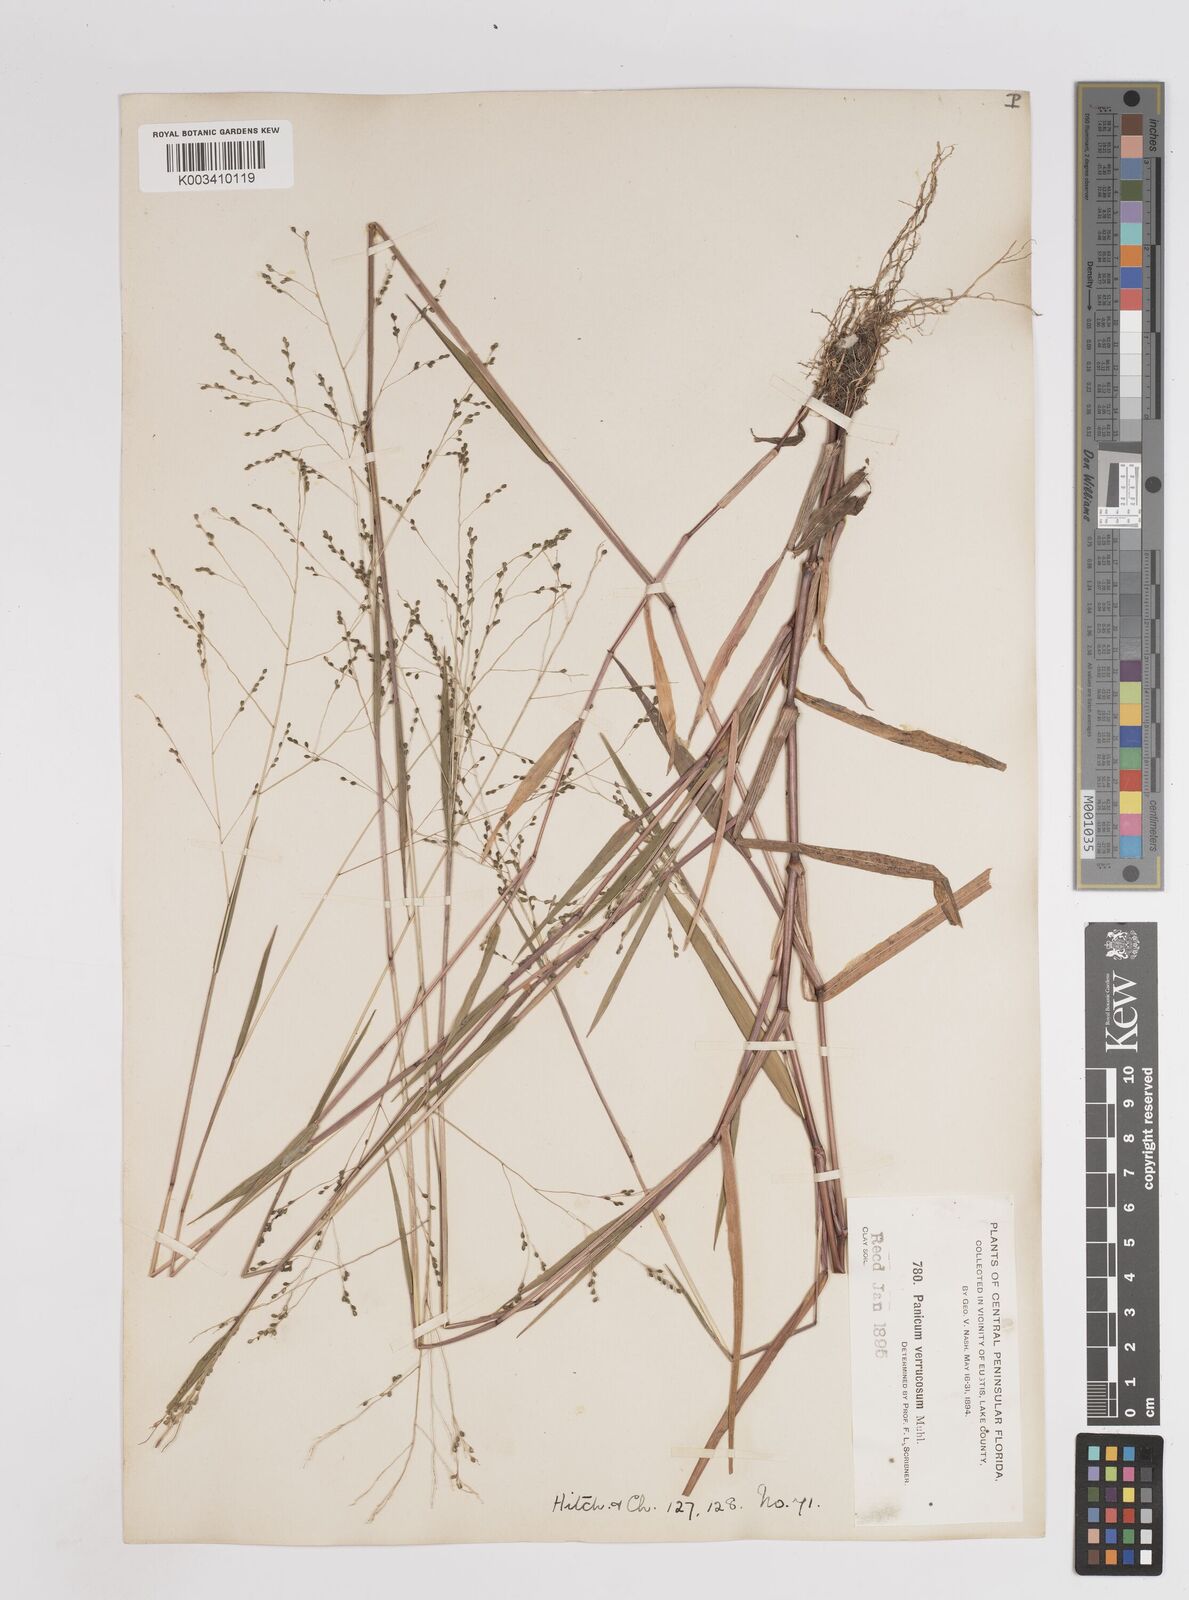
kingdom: Plantae
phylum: Tracheophyta
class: Liliopsida
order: Poales
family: Poaceae
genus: Kellochloa
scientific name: Kellochloa verrucosa
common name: Warty panic grass
